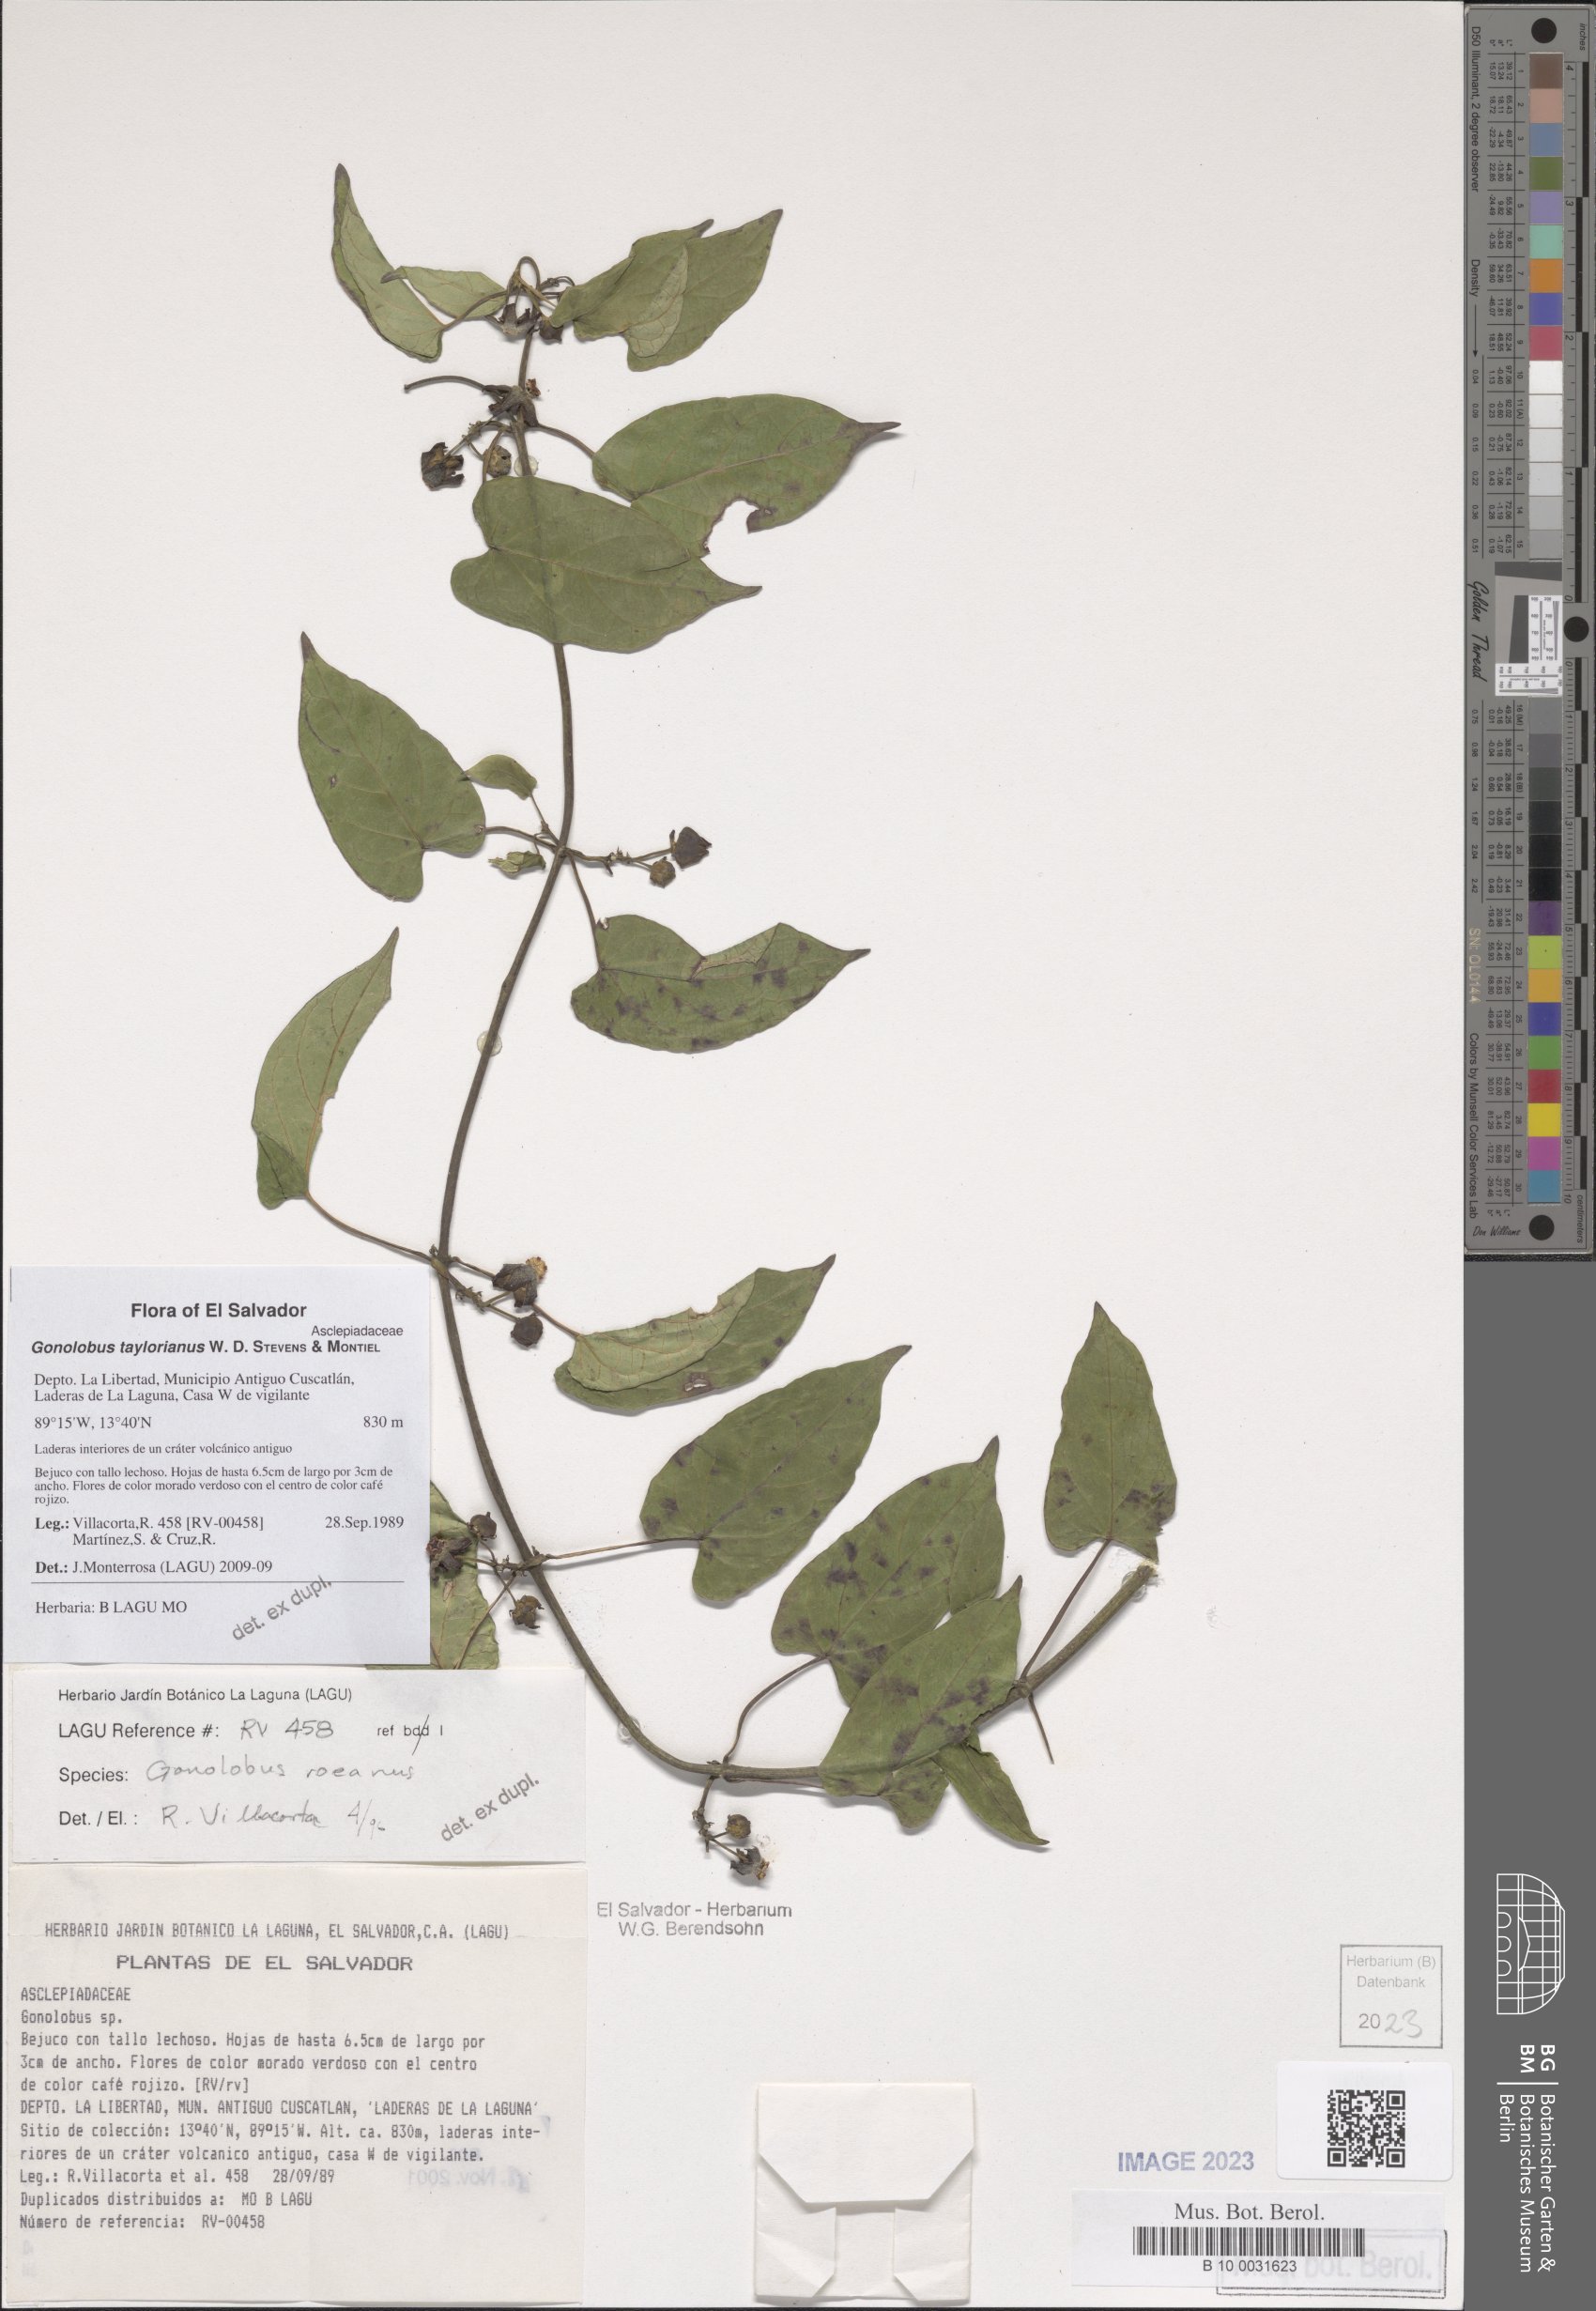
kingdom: Plantae
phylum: Tracheophyta
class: Magnoliopsida
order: Gentianales
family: Apocynaceae
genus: Gonolobus
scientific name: Gonolobus taylorianus
